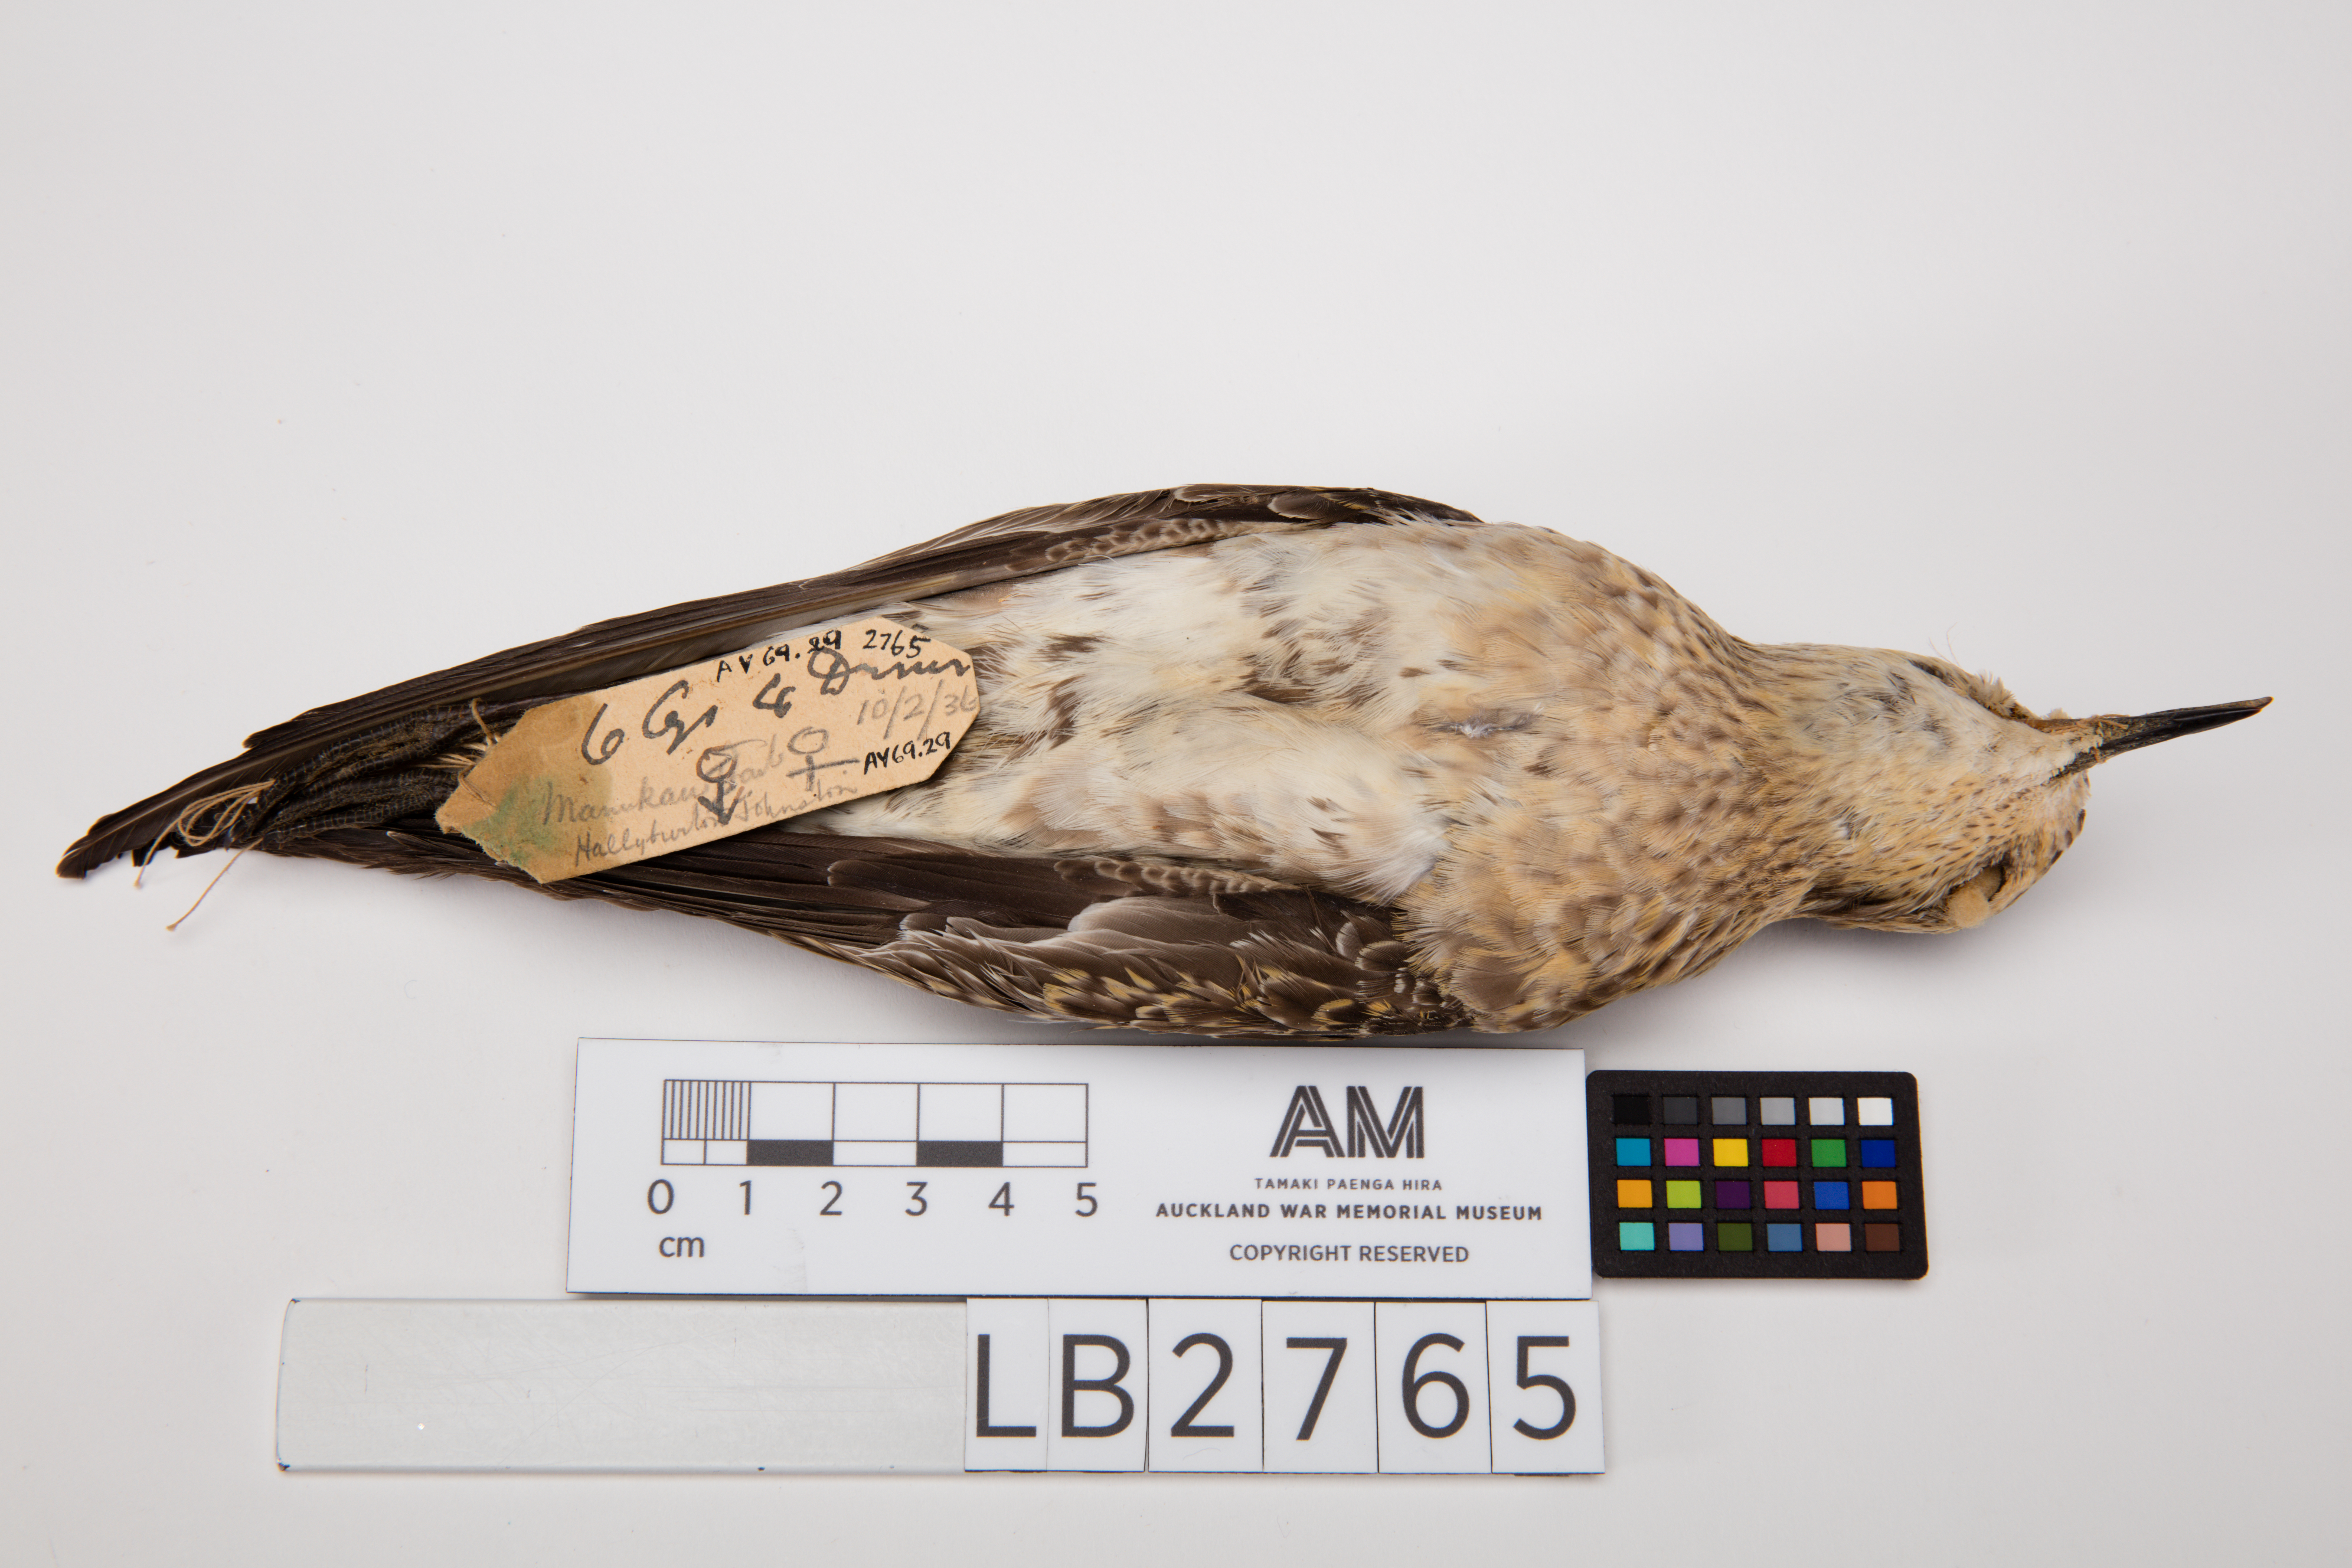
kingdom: Animalia
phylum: Chordata
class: Aves
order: Charadriiformes
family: Charadriidae
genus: Pluvialis
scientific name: Pluvialis fulva
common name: Pacific golden plover
